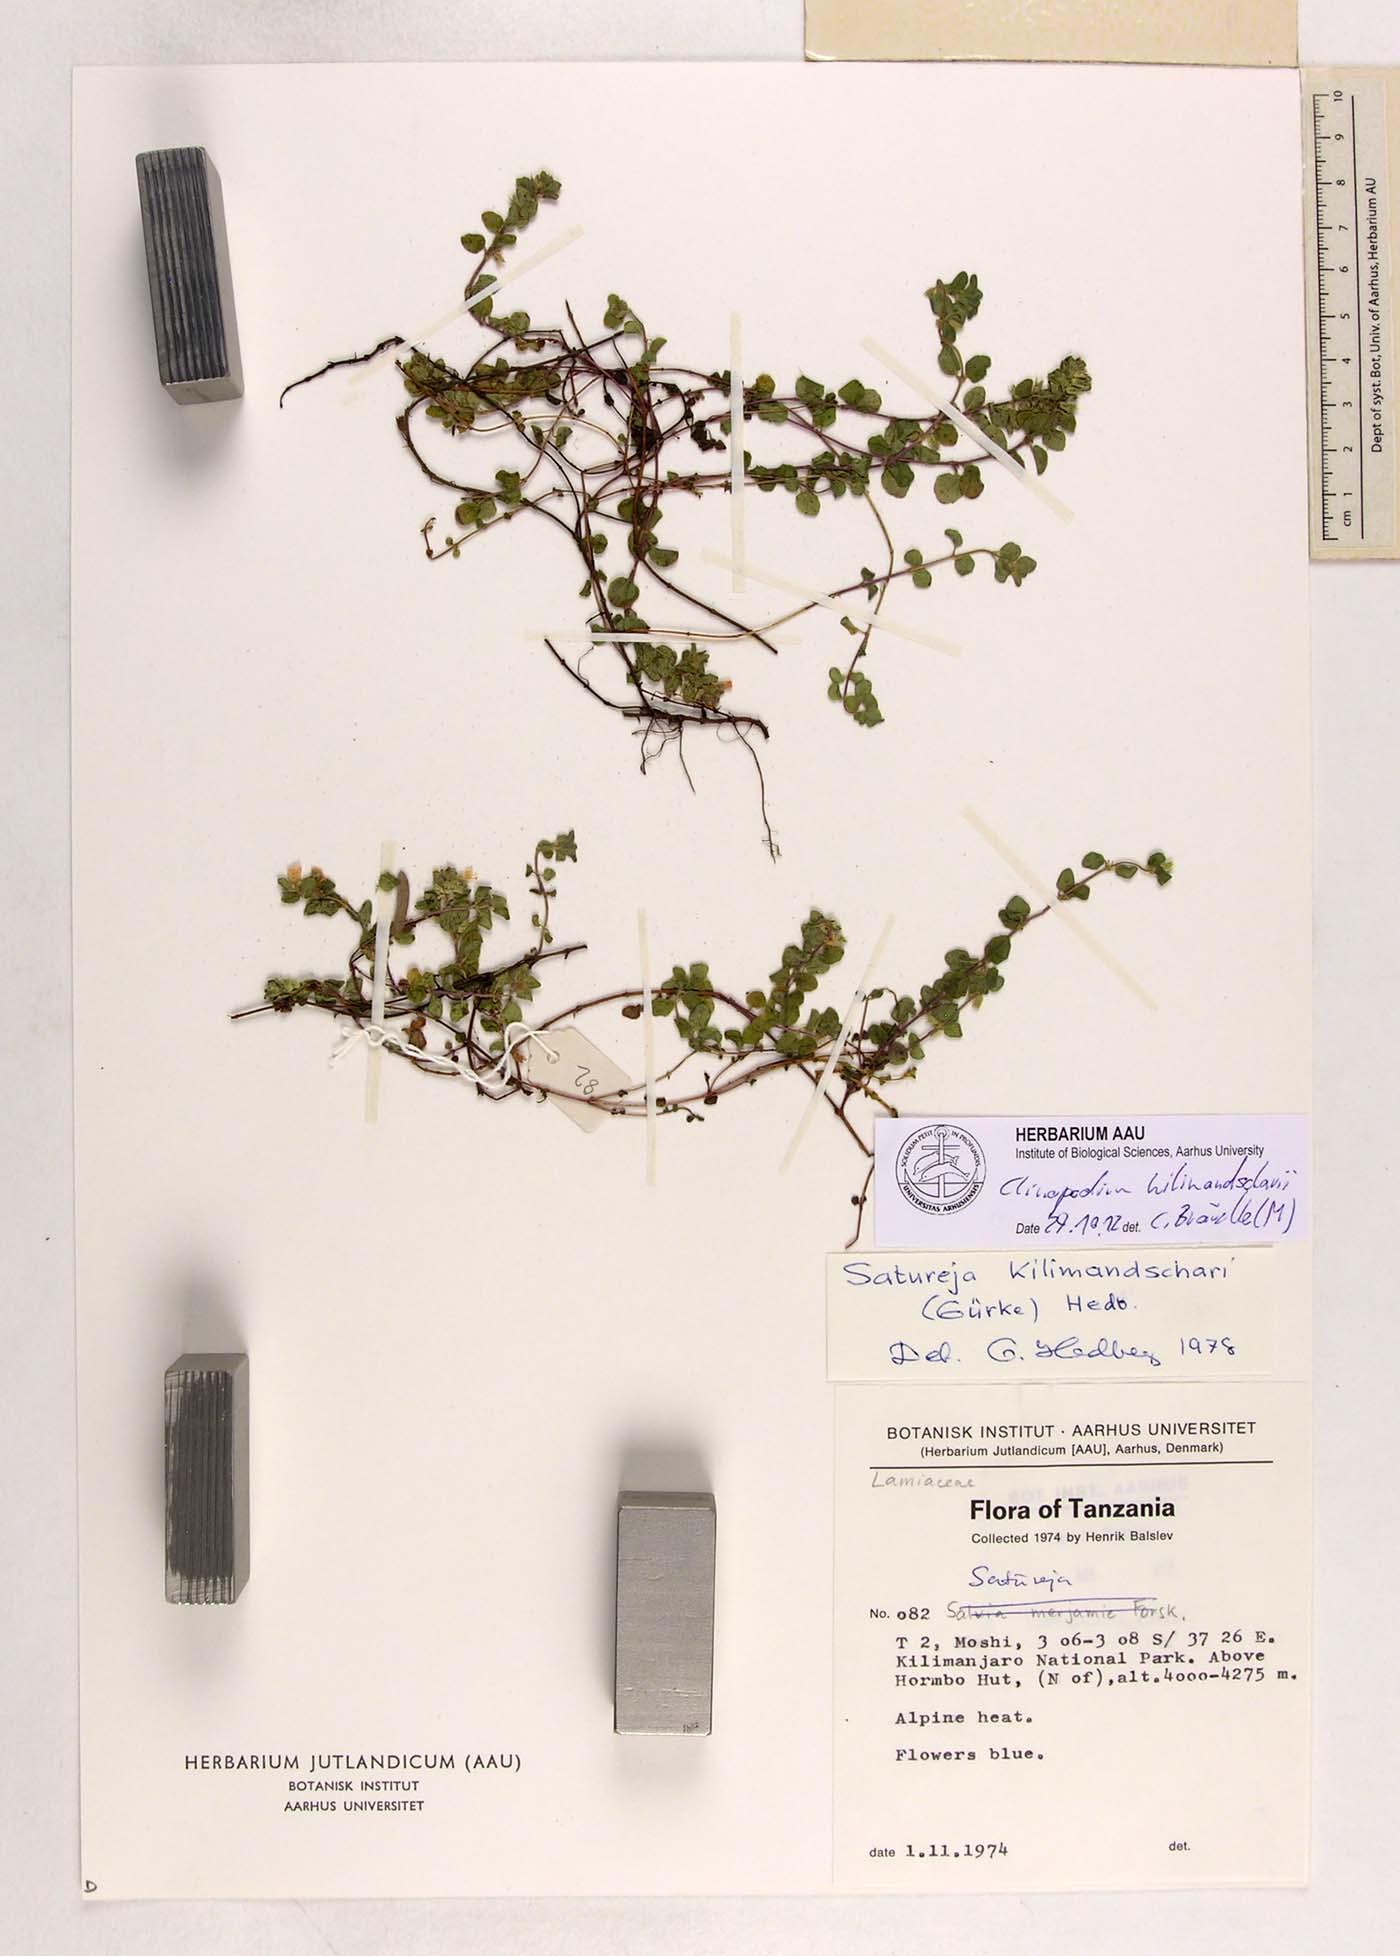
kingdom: Plantae
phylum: Tracheophyta
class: Magnoliopsida
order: Lamiales
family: Lamiaceae
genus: Clinopodium
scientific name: Clinopodium kilimandschari
